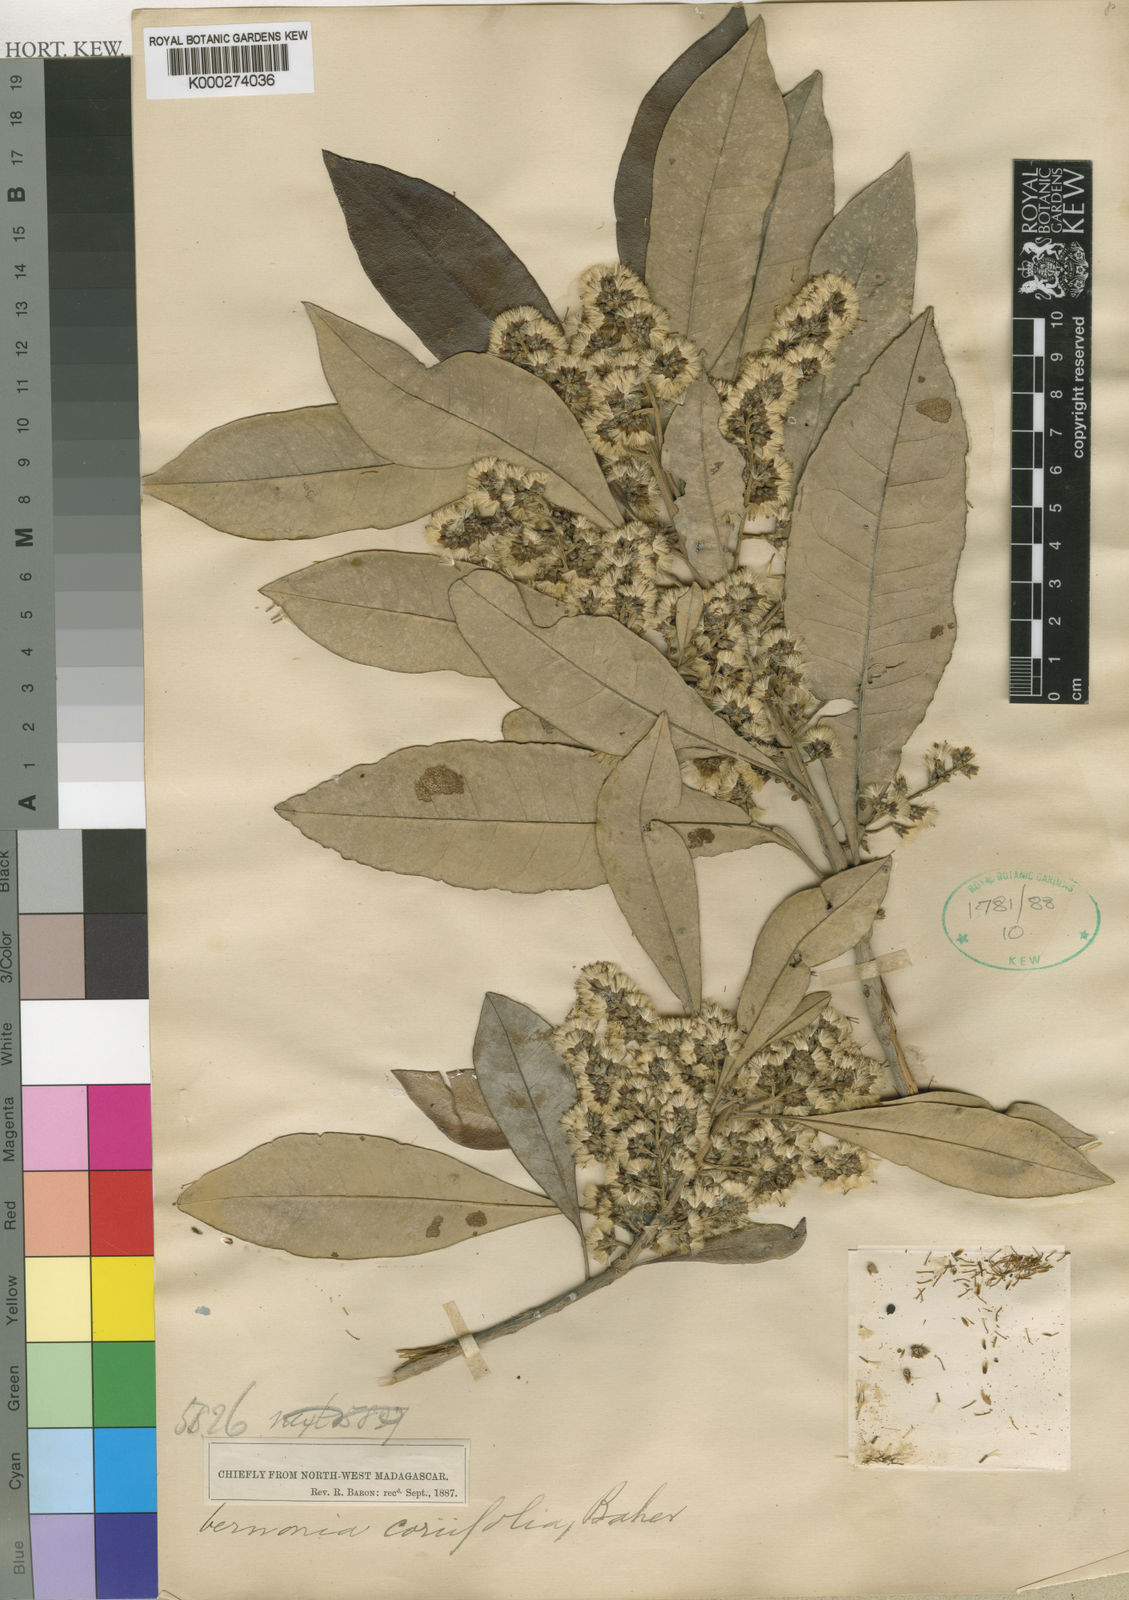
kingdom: Plantae
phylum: Tracheophyta
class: Magnoliopsida
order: Asterales
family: Asteraceae
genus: Brachylaena
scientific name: Brachylaena merana
